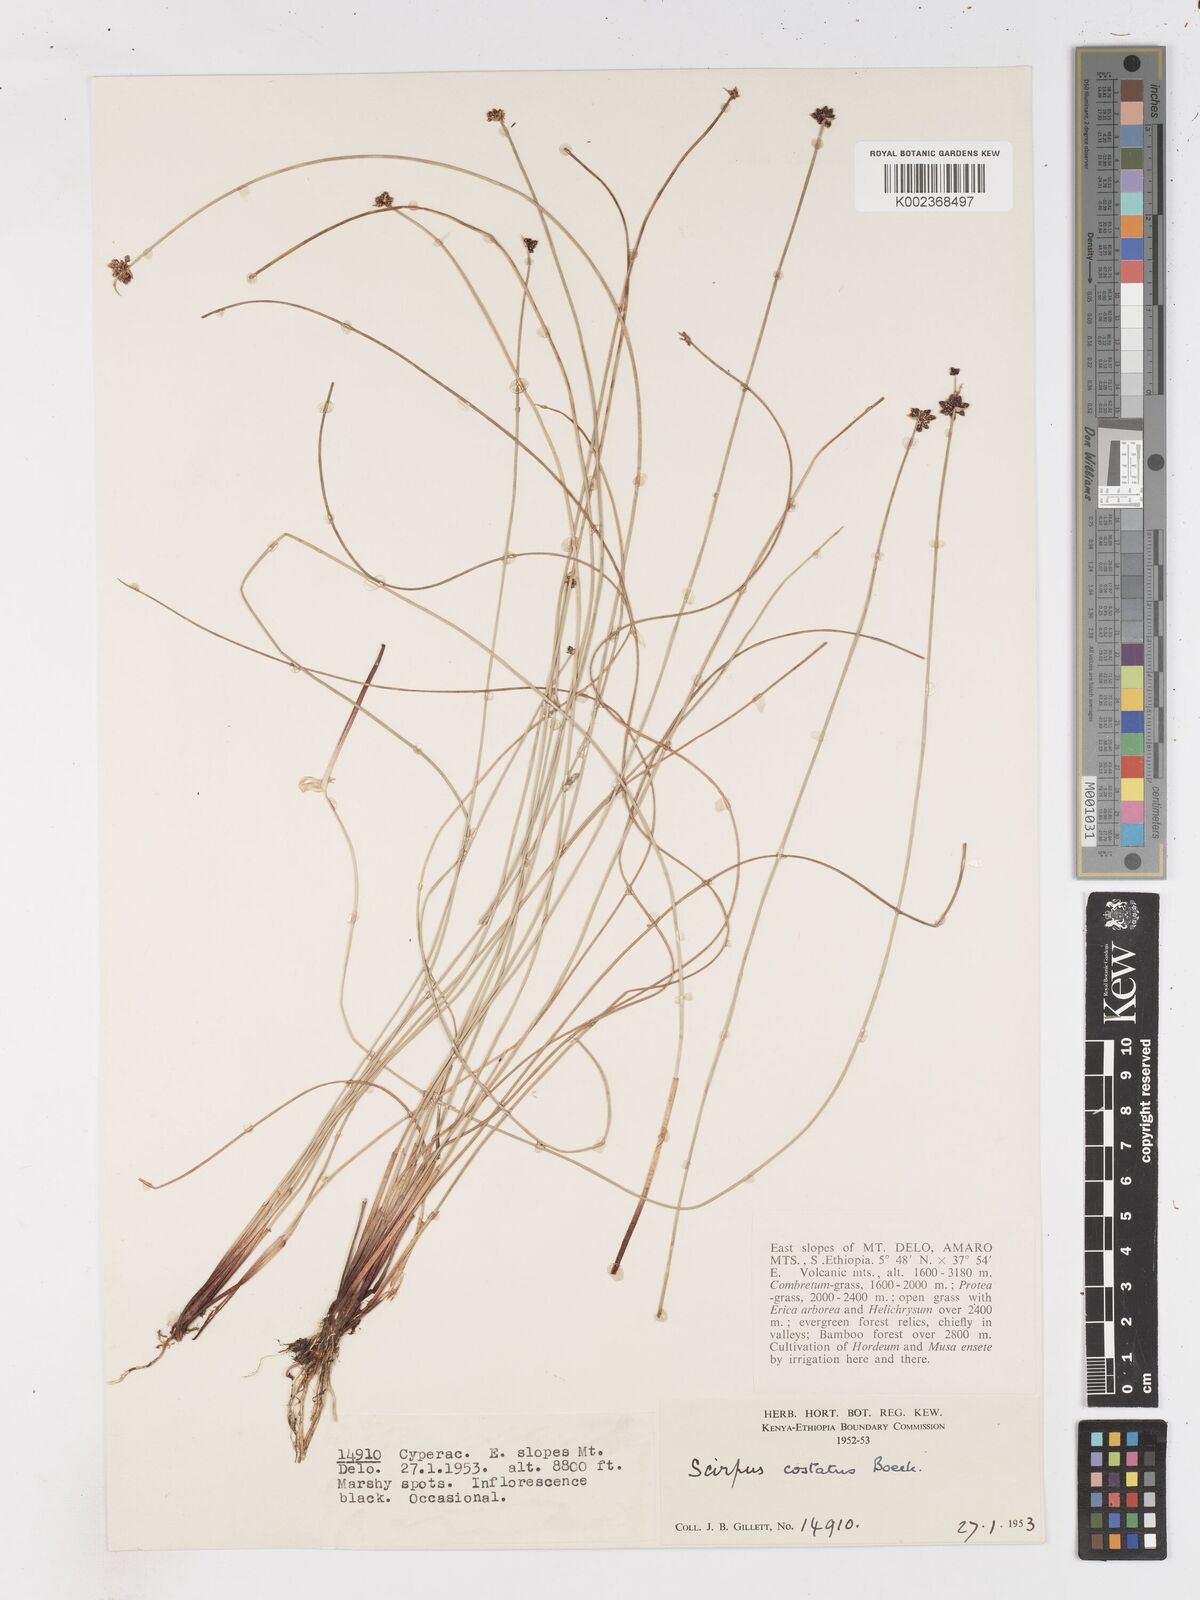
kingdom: Plantae
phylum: Tracheophyta
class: Liliopsida
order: Poales
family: Cyperaceae
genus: Isolepis
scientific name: Isolepis costata
